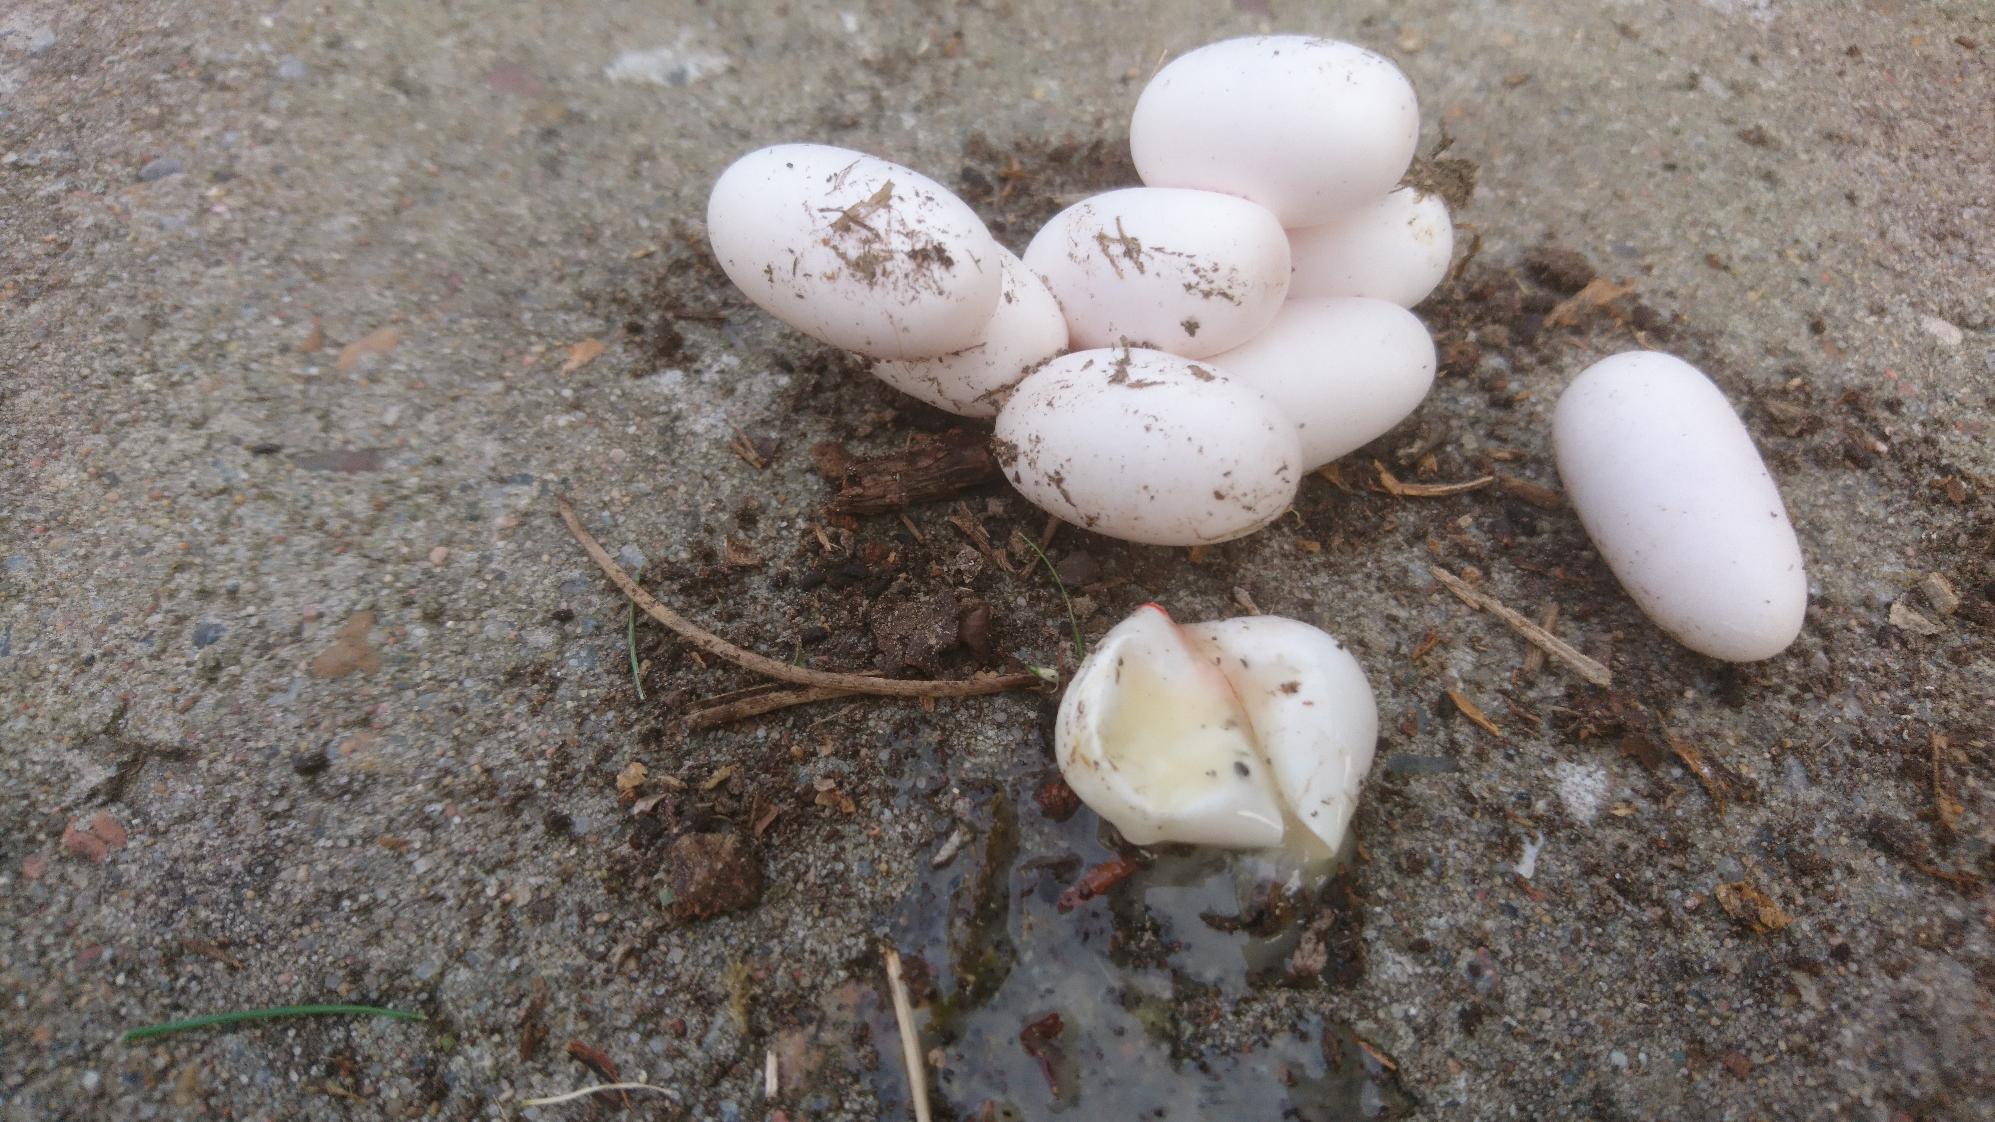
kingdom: Animalia
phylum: Chordata
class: Squamata
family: Colubridae
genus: Natrix
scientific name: Natrix natrix
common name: Snog
